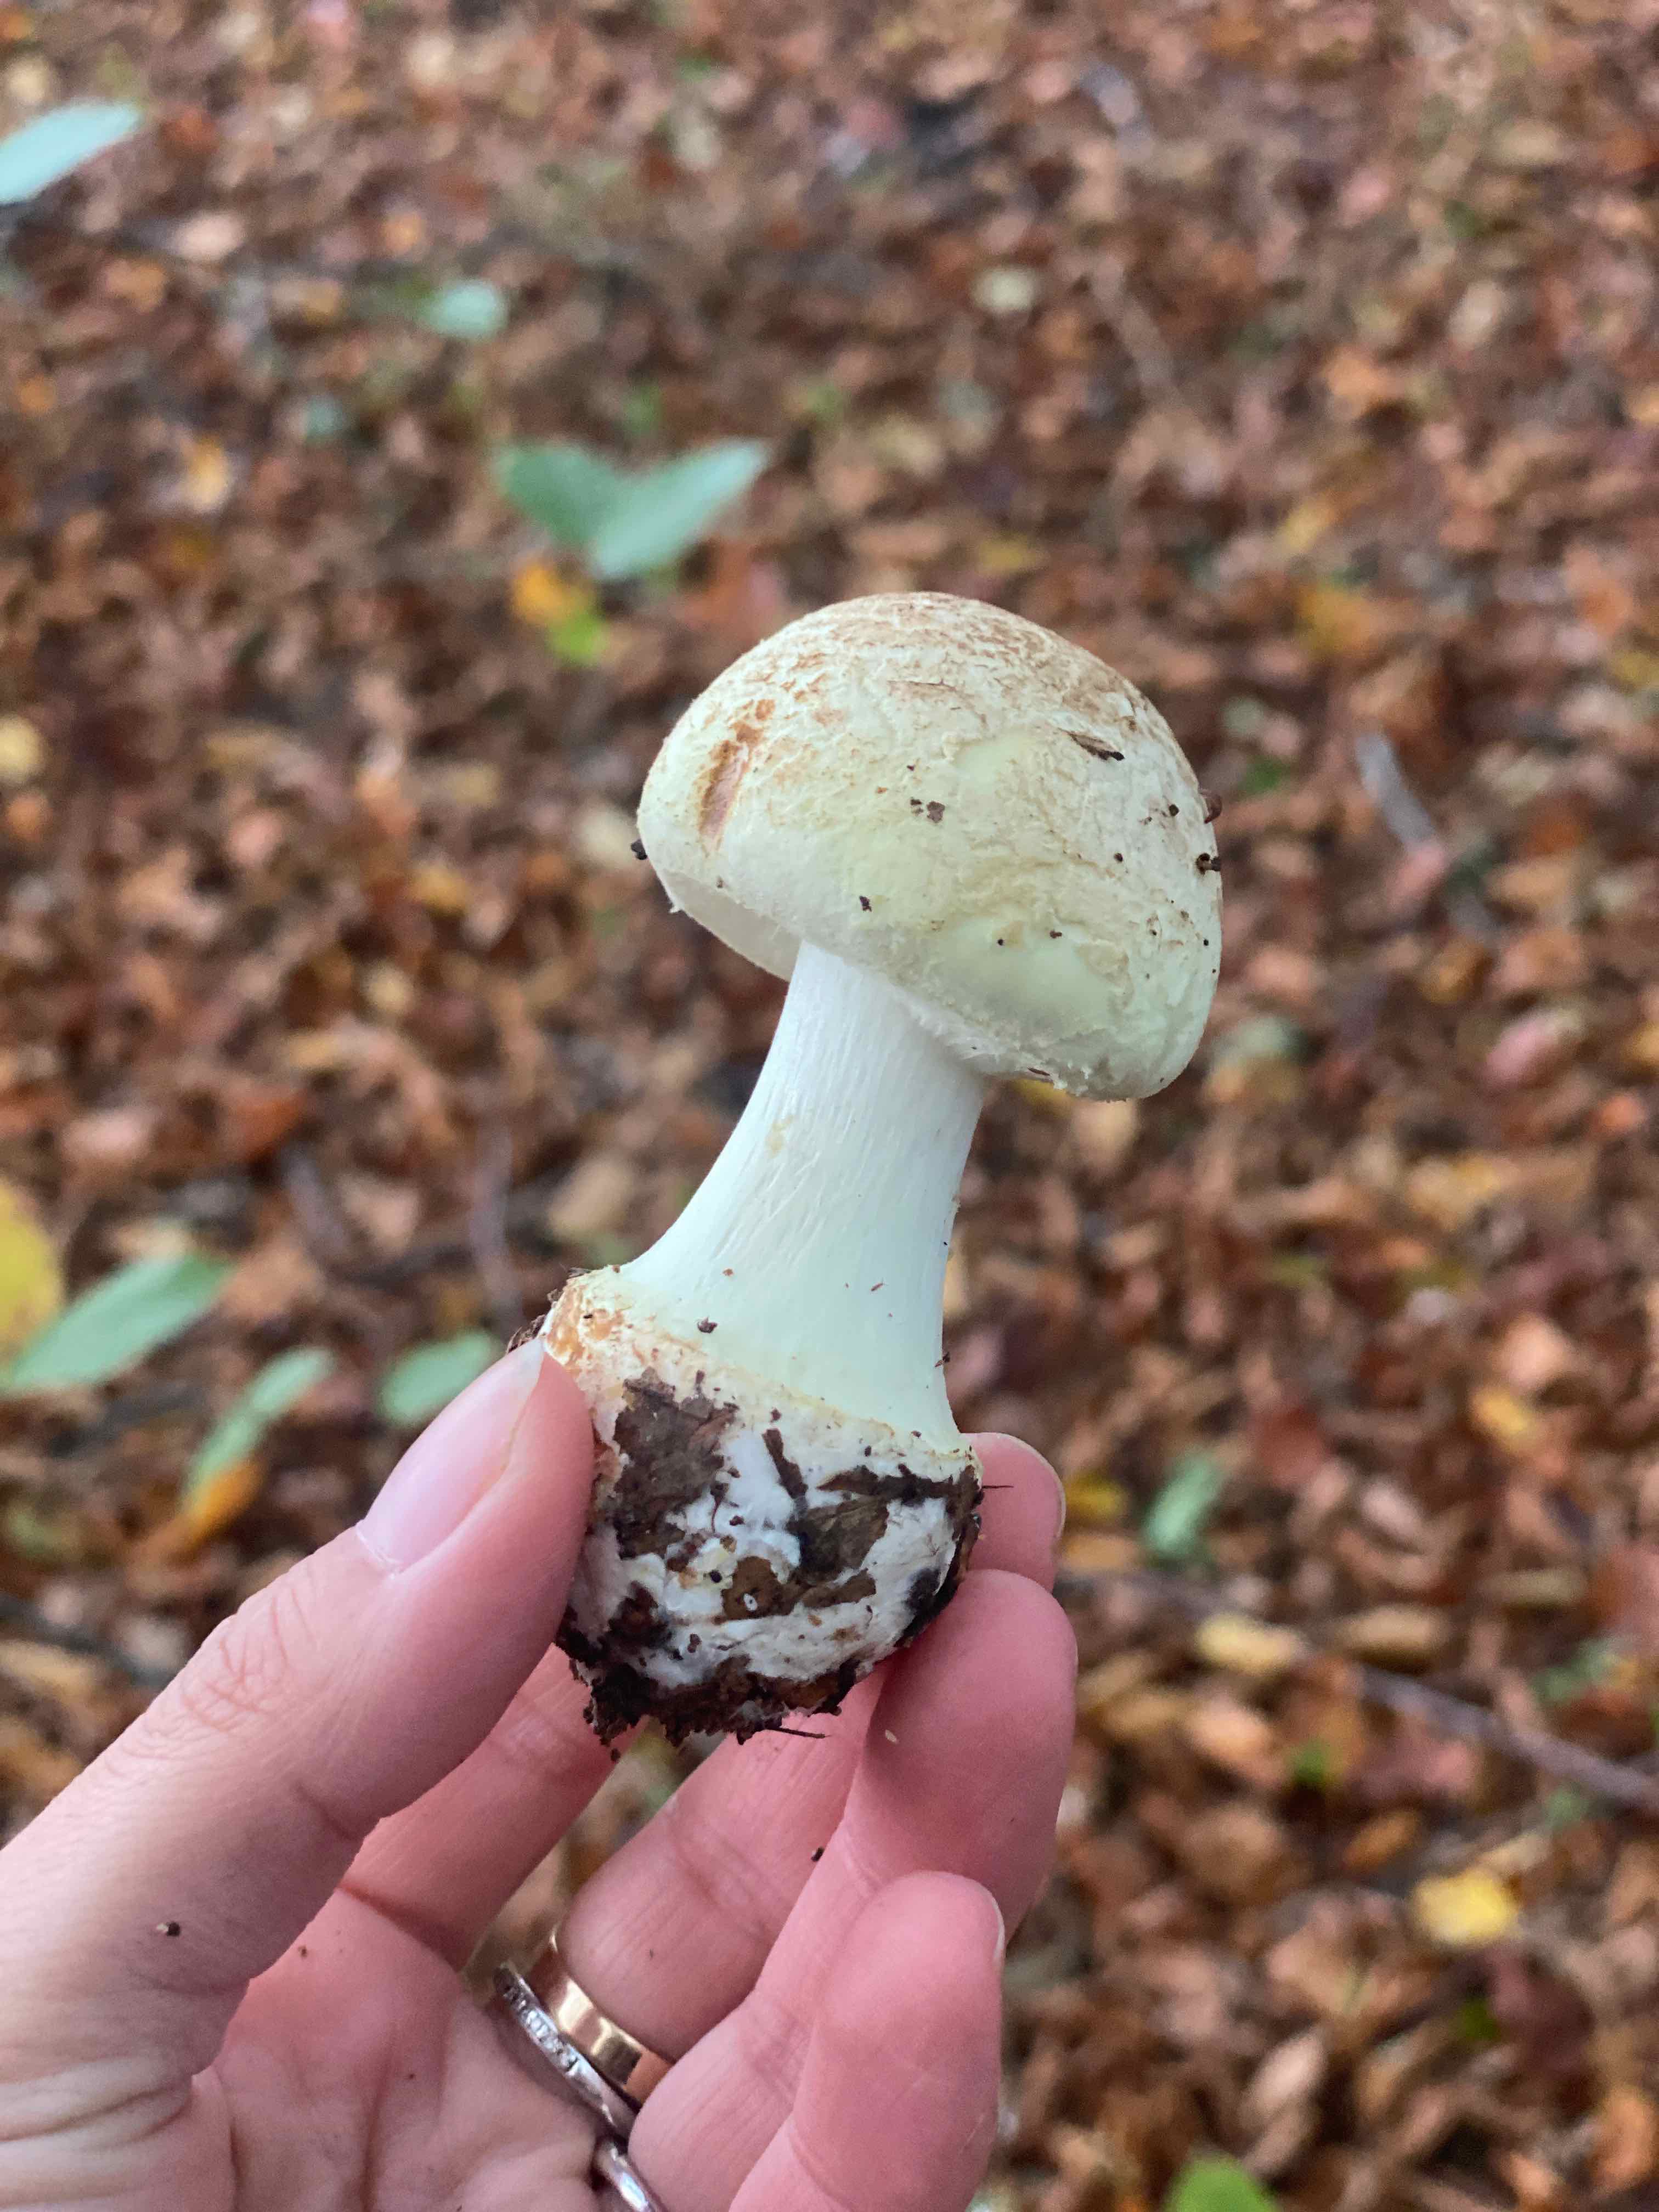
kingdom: Fungi
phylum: Basidiomycota
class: Agaricomycetes
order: Agaricales
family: Amanitaceae
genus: Amanita
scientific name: Amanita citrina
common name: kugleknoldet fluesvamp
